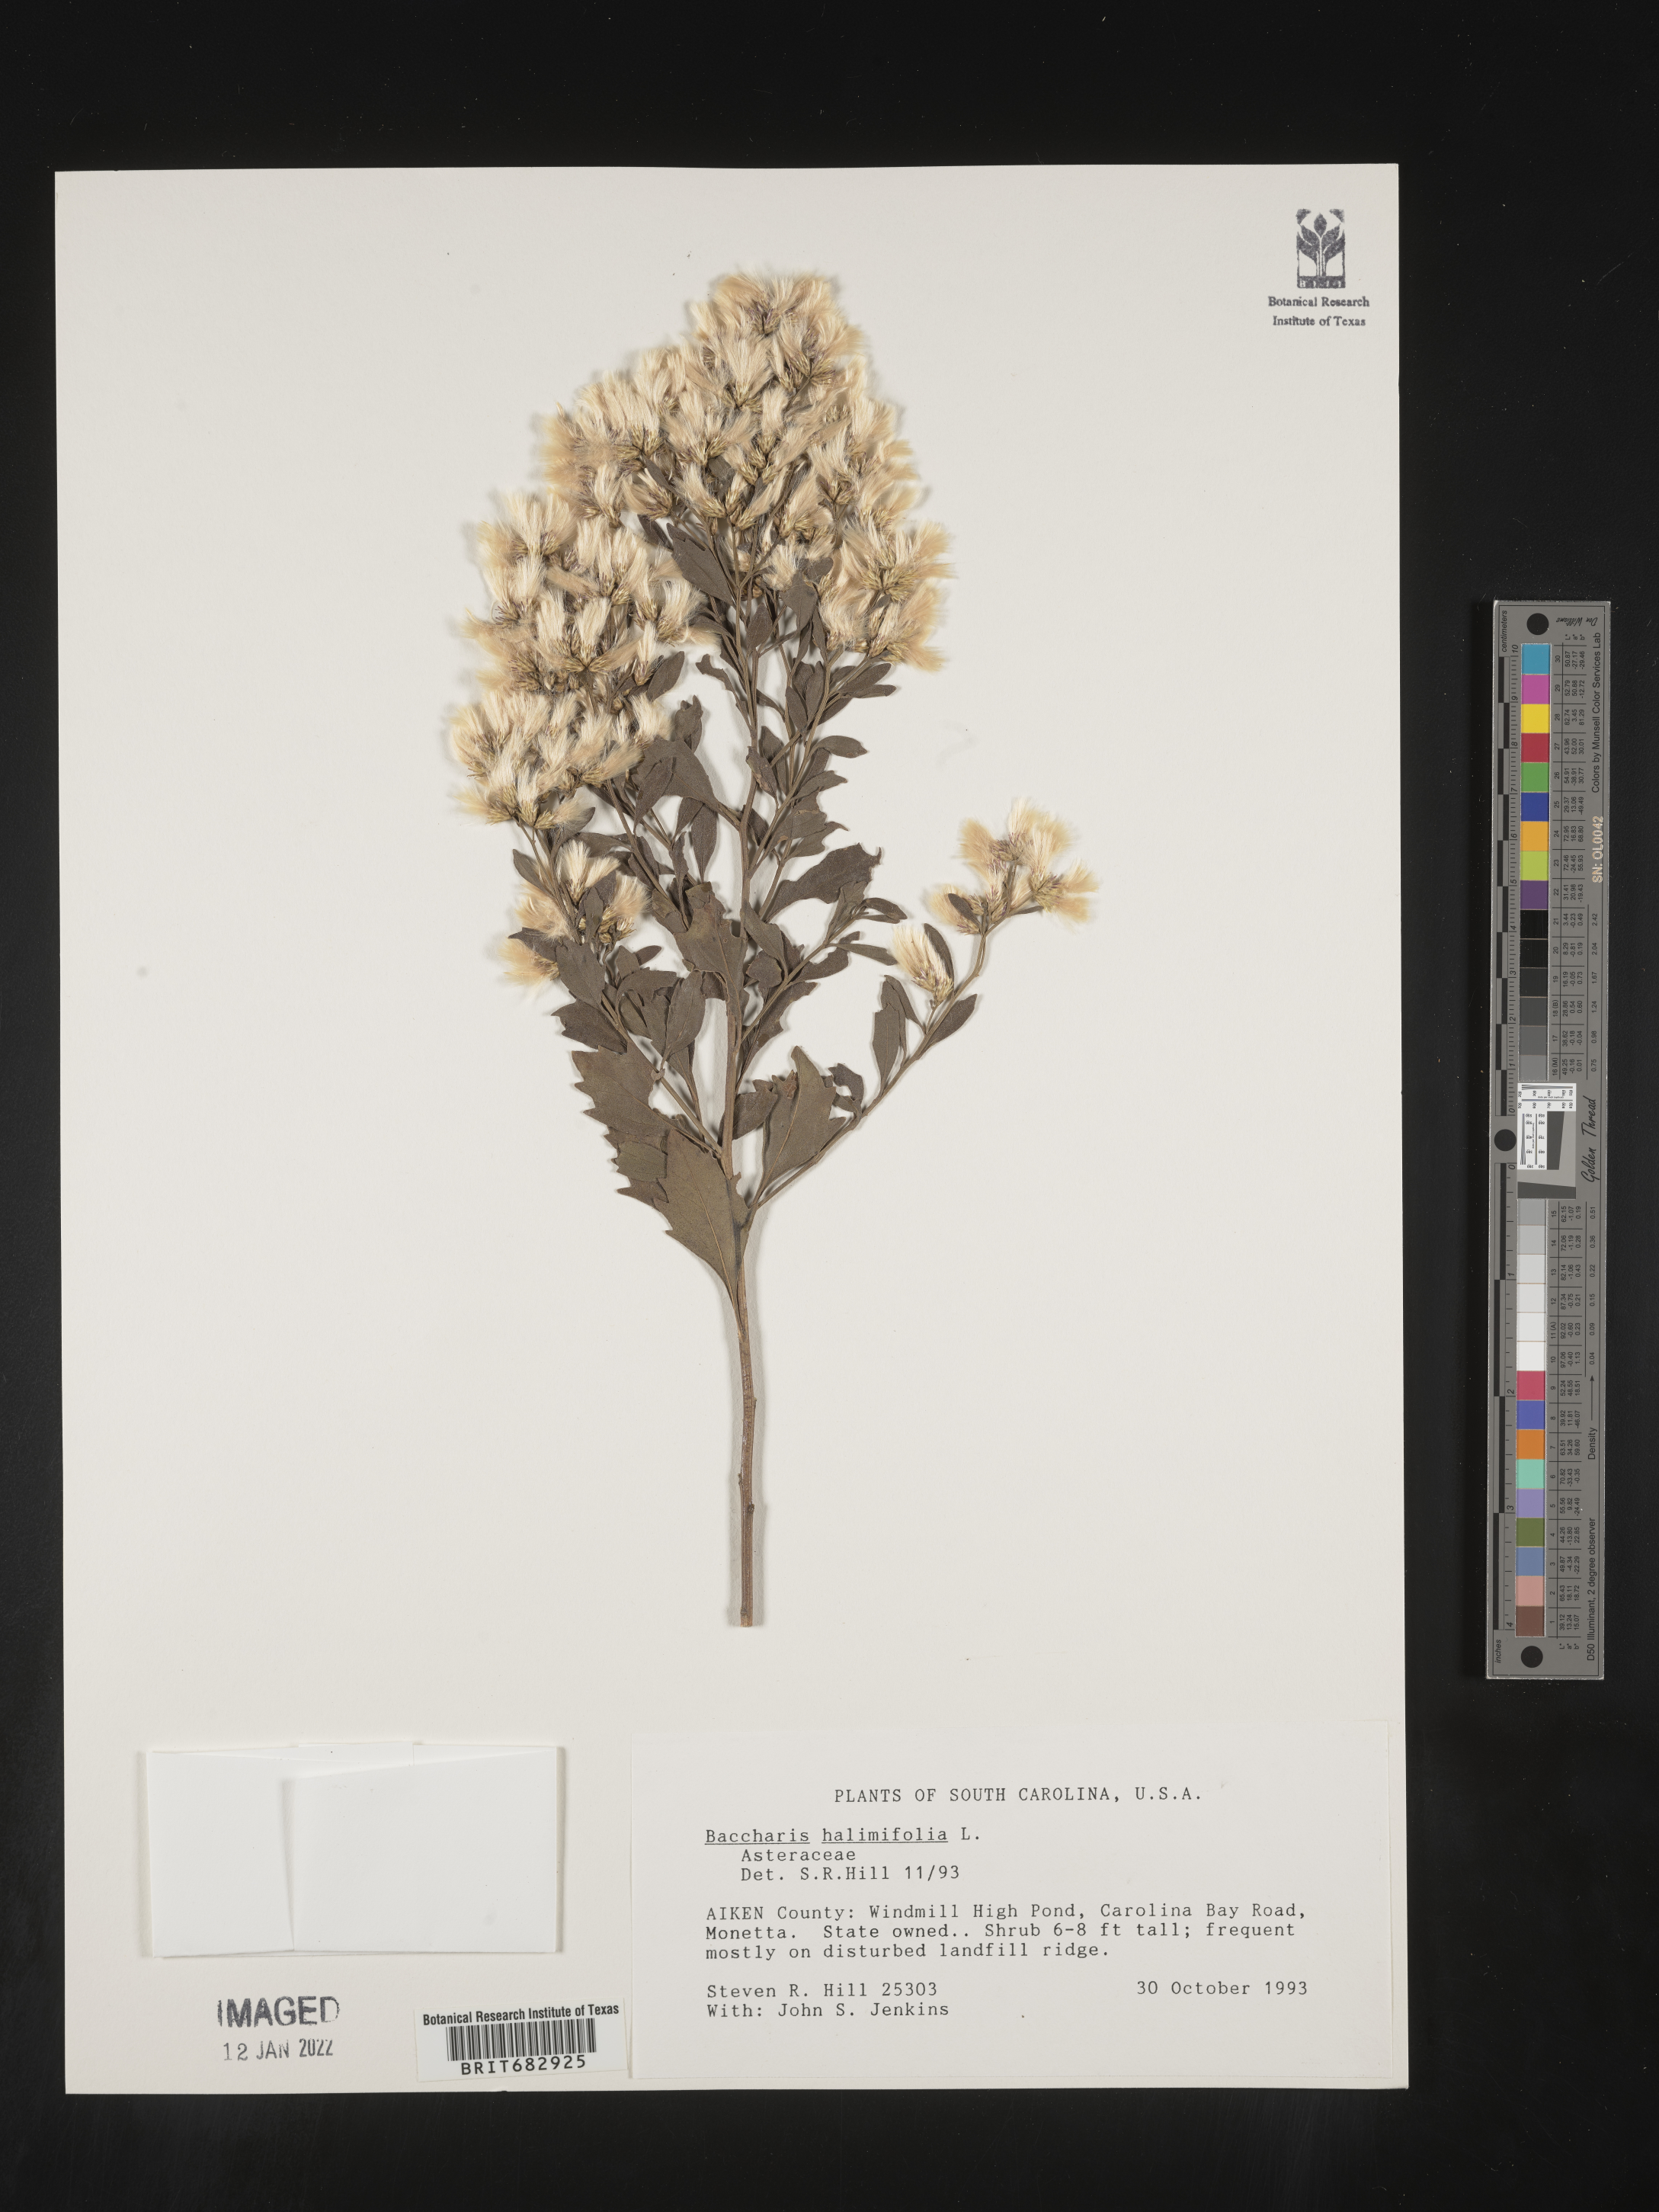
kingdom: Plantae
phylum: Tracheophyta
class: Magnoliopsida
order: Asterales
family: Asteraceae
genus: Nidorella
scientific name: Nidorella ivifolia
